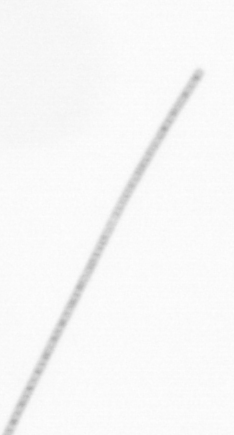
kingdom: Chromista
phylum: Ochrophyta
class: Bacillariophyceae
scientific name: Bacillariophyceae
